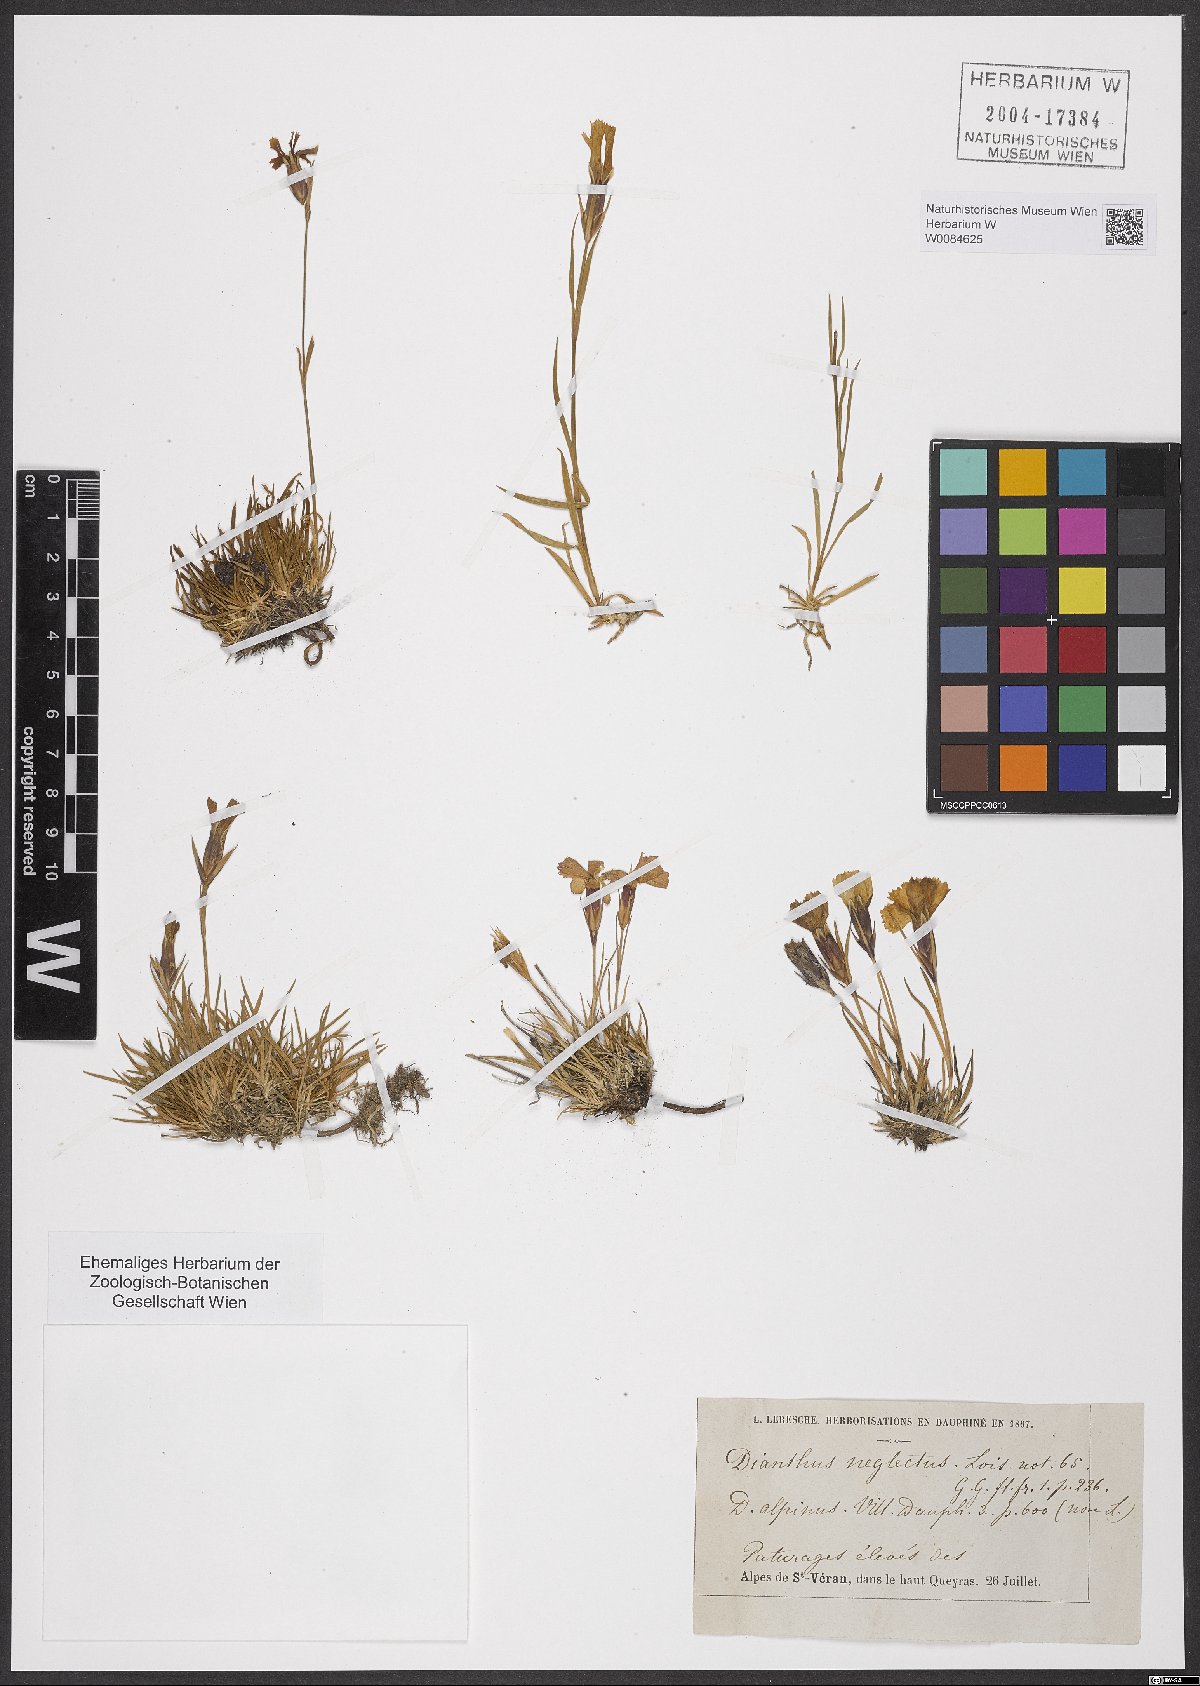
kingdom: Plantae
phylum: Tracheophyta
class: Magnoliopsida
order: Caryophyllales
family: Caryophyllaceae
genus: Dianthus
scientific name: Dianthus seguieri
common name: Ragged pink
